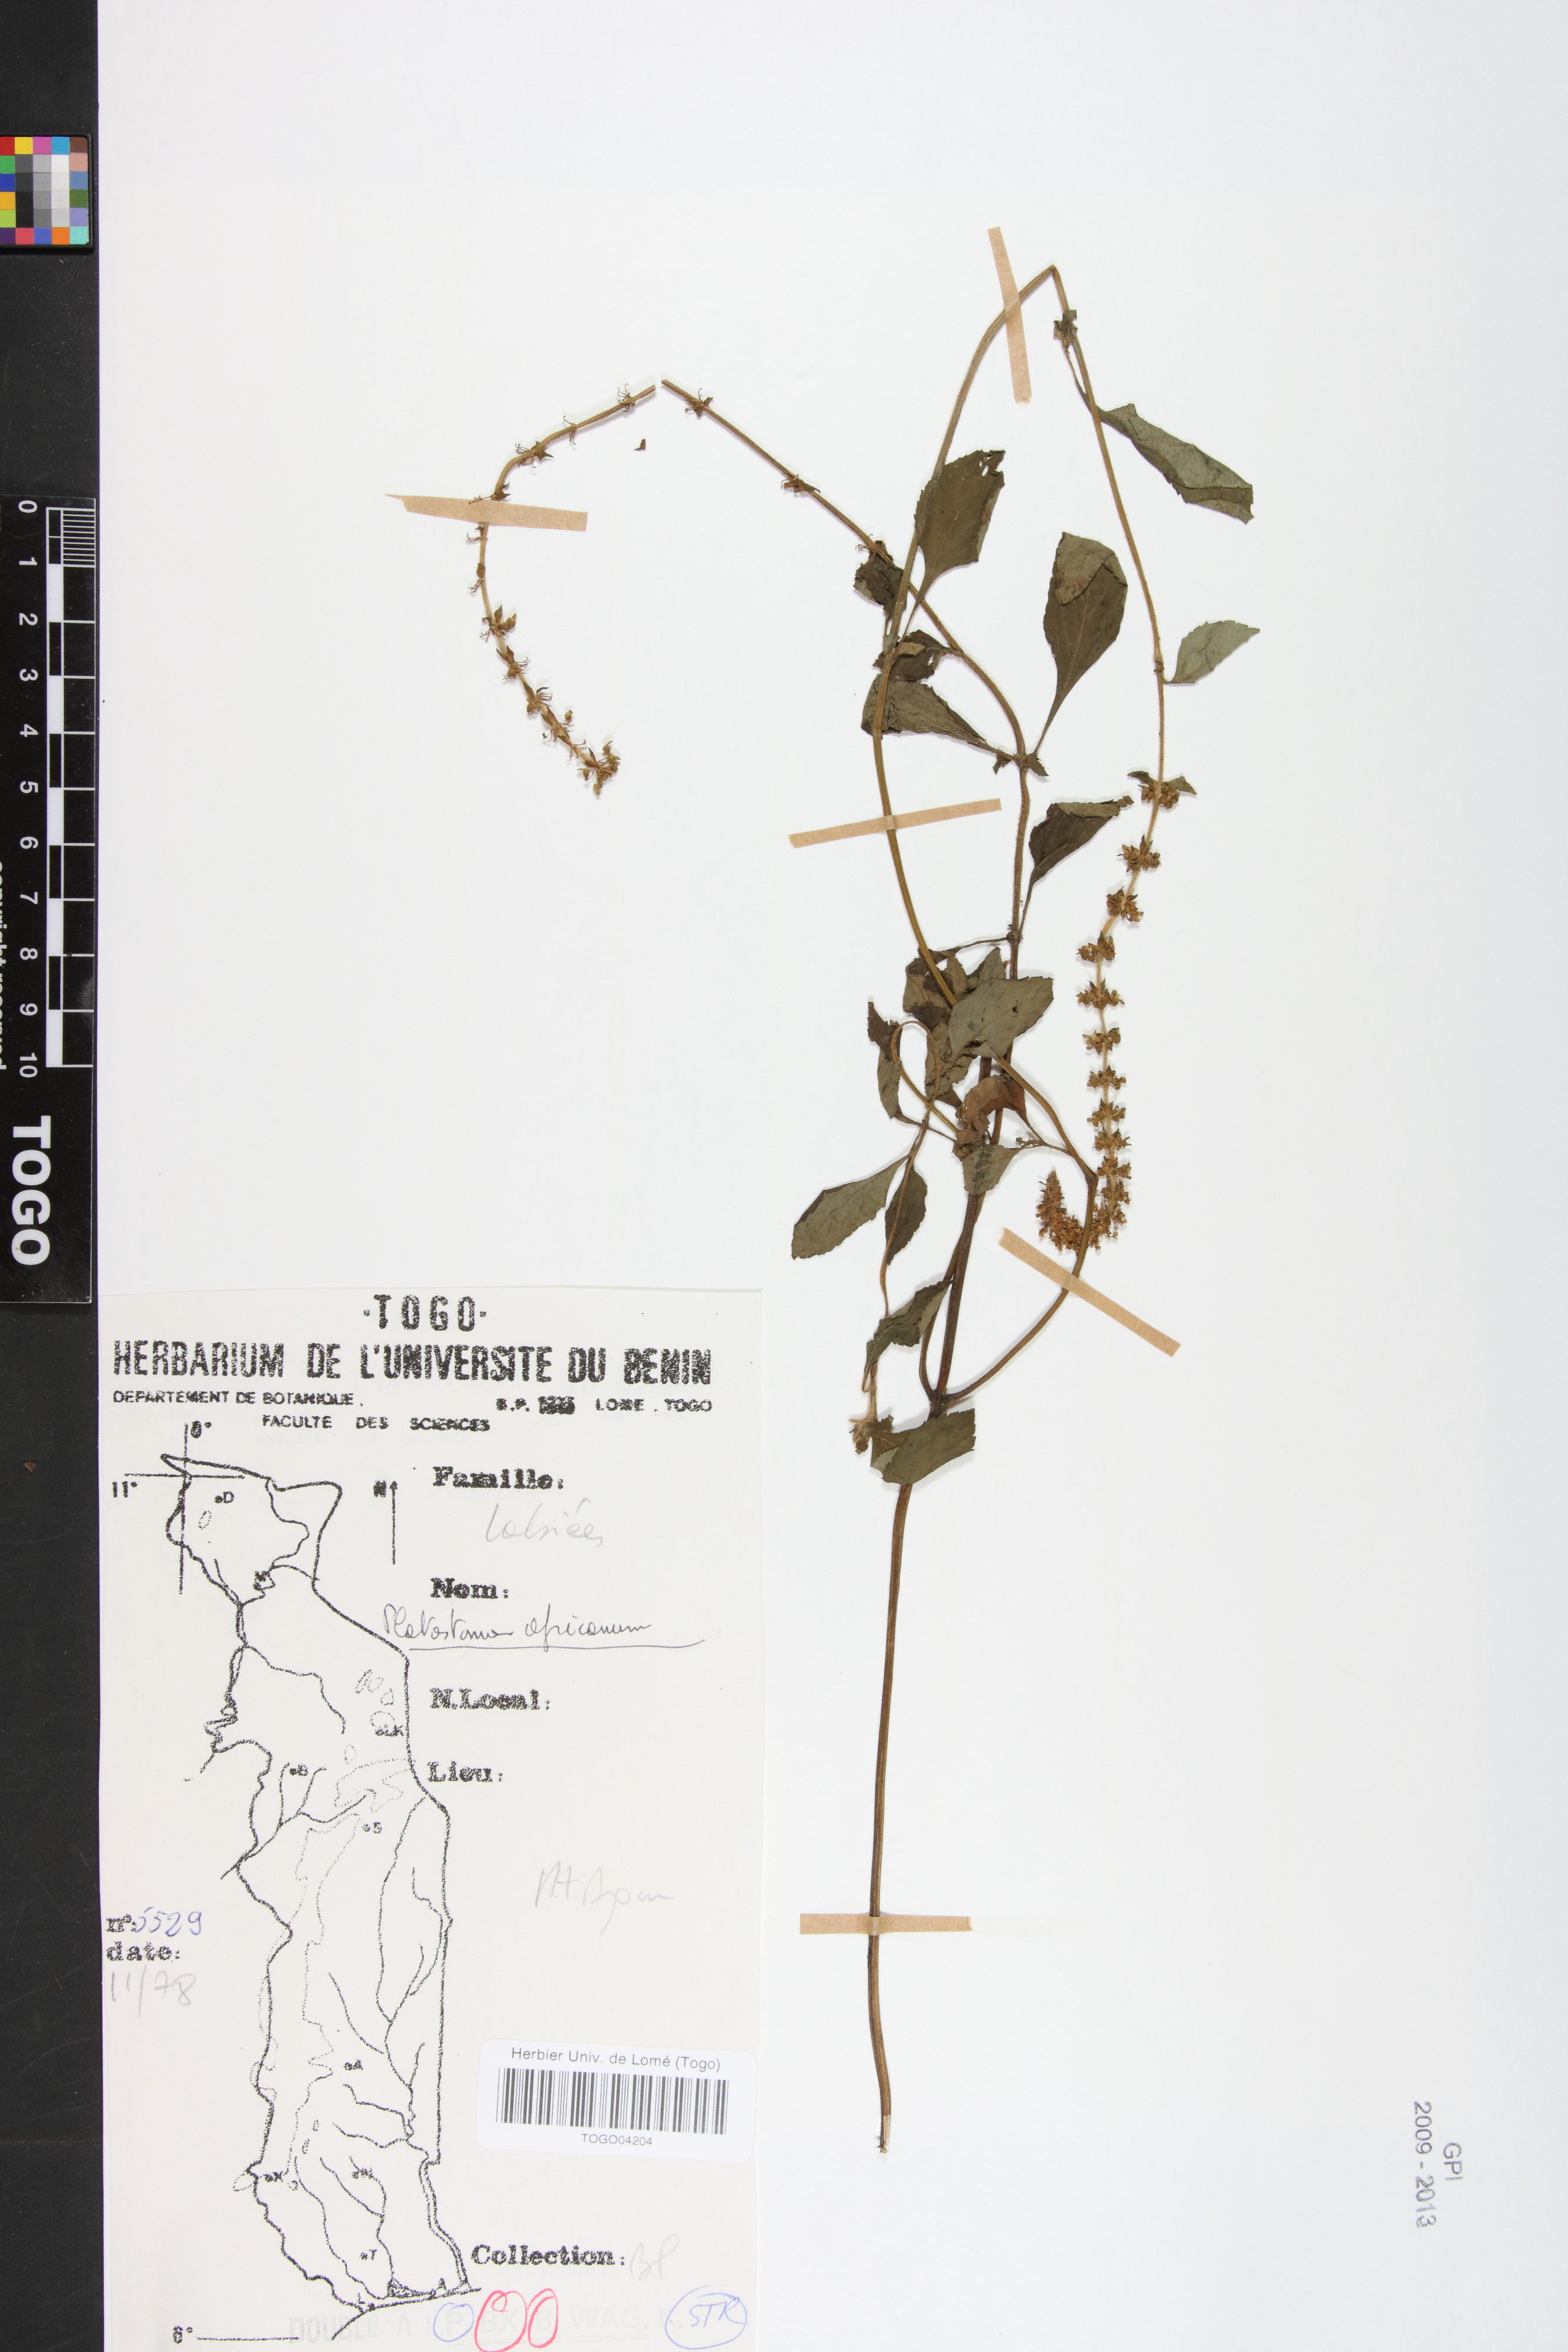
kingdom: Plantae
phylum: Tracheophyta
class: Magnoliopsida
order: Lamiales
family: Lamiaceae
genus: Platostoma
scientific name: Platostoma africanum
